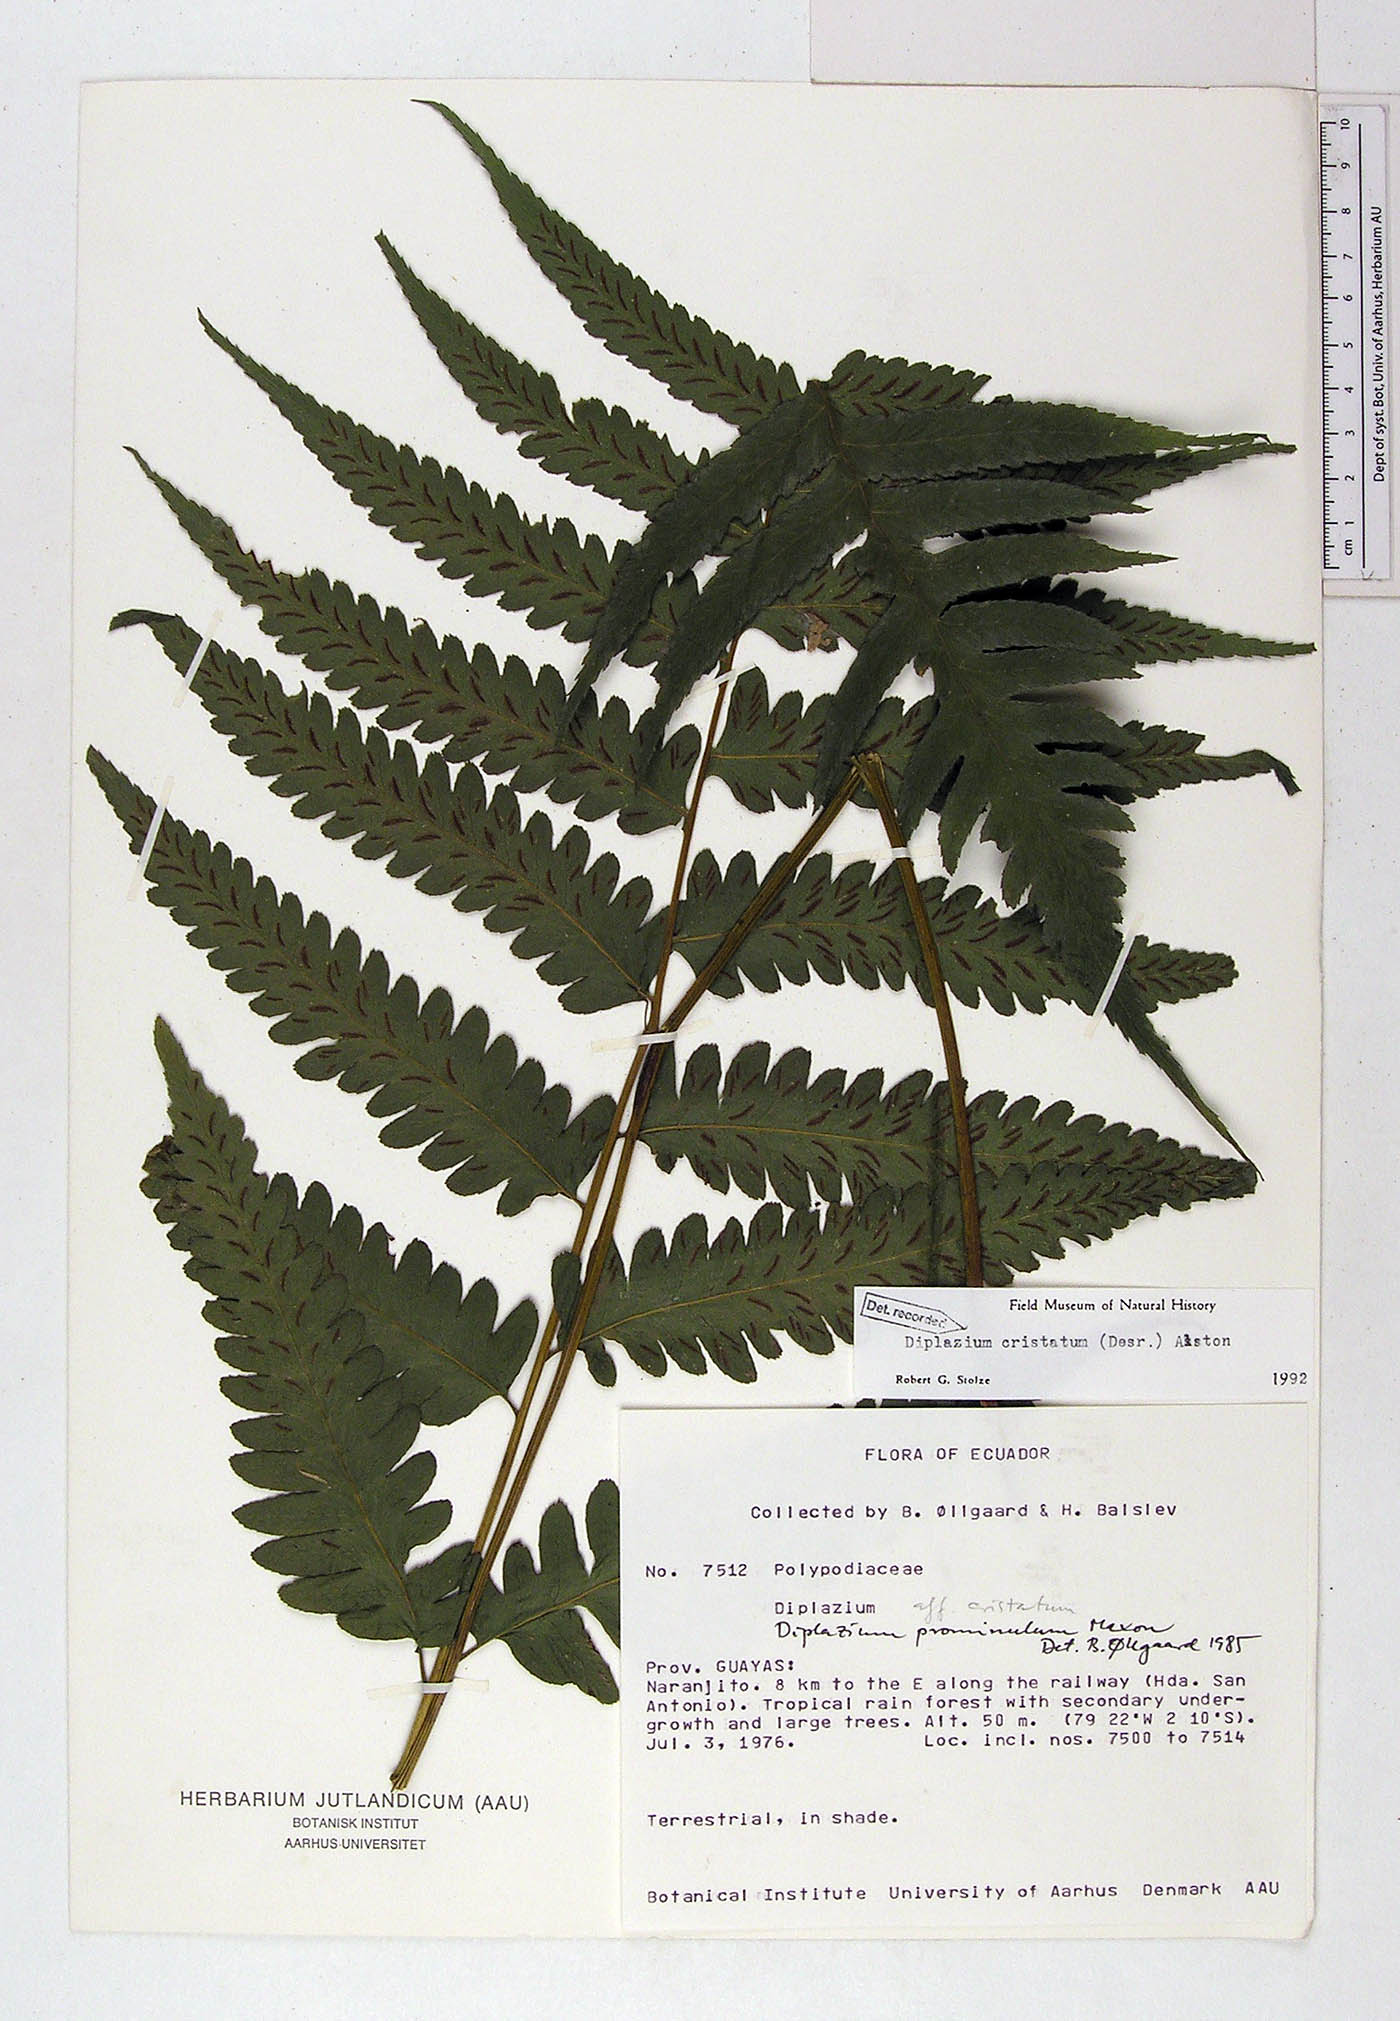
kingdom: Plantae
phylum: Tracheophyta
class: Polypodiopsida
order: Polypodiales
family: Athyriaceae
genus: Diplazium
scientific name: Diplazium cristatum
